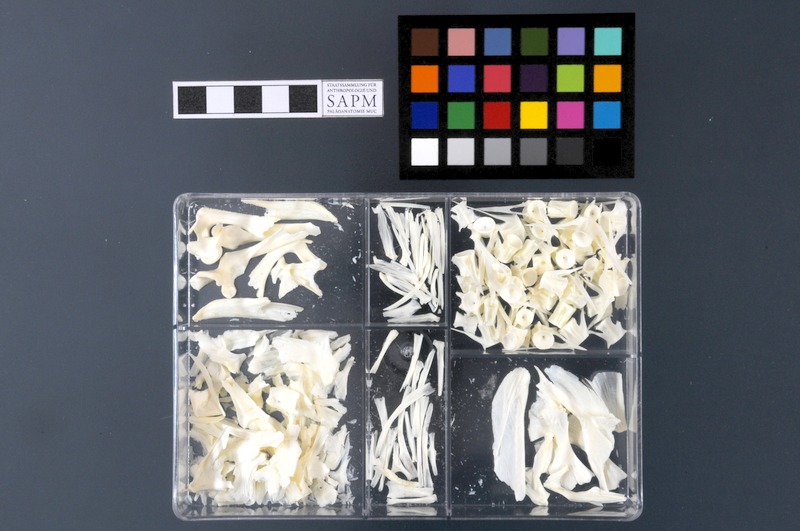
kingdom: Animalia
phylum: Chordata
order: Gadiformes
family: Macrouridae
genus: Coryphaenoides
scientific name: Coryphaenoides rupestris
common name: Rock grenadier
